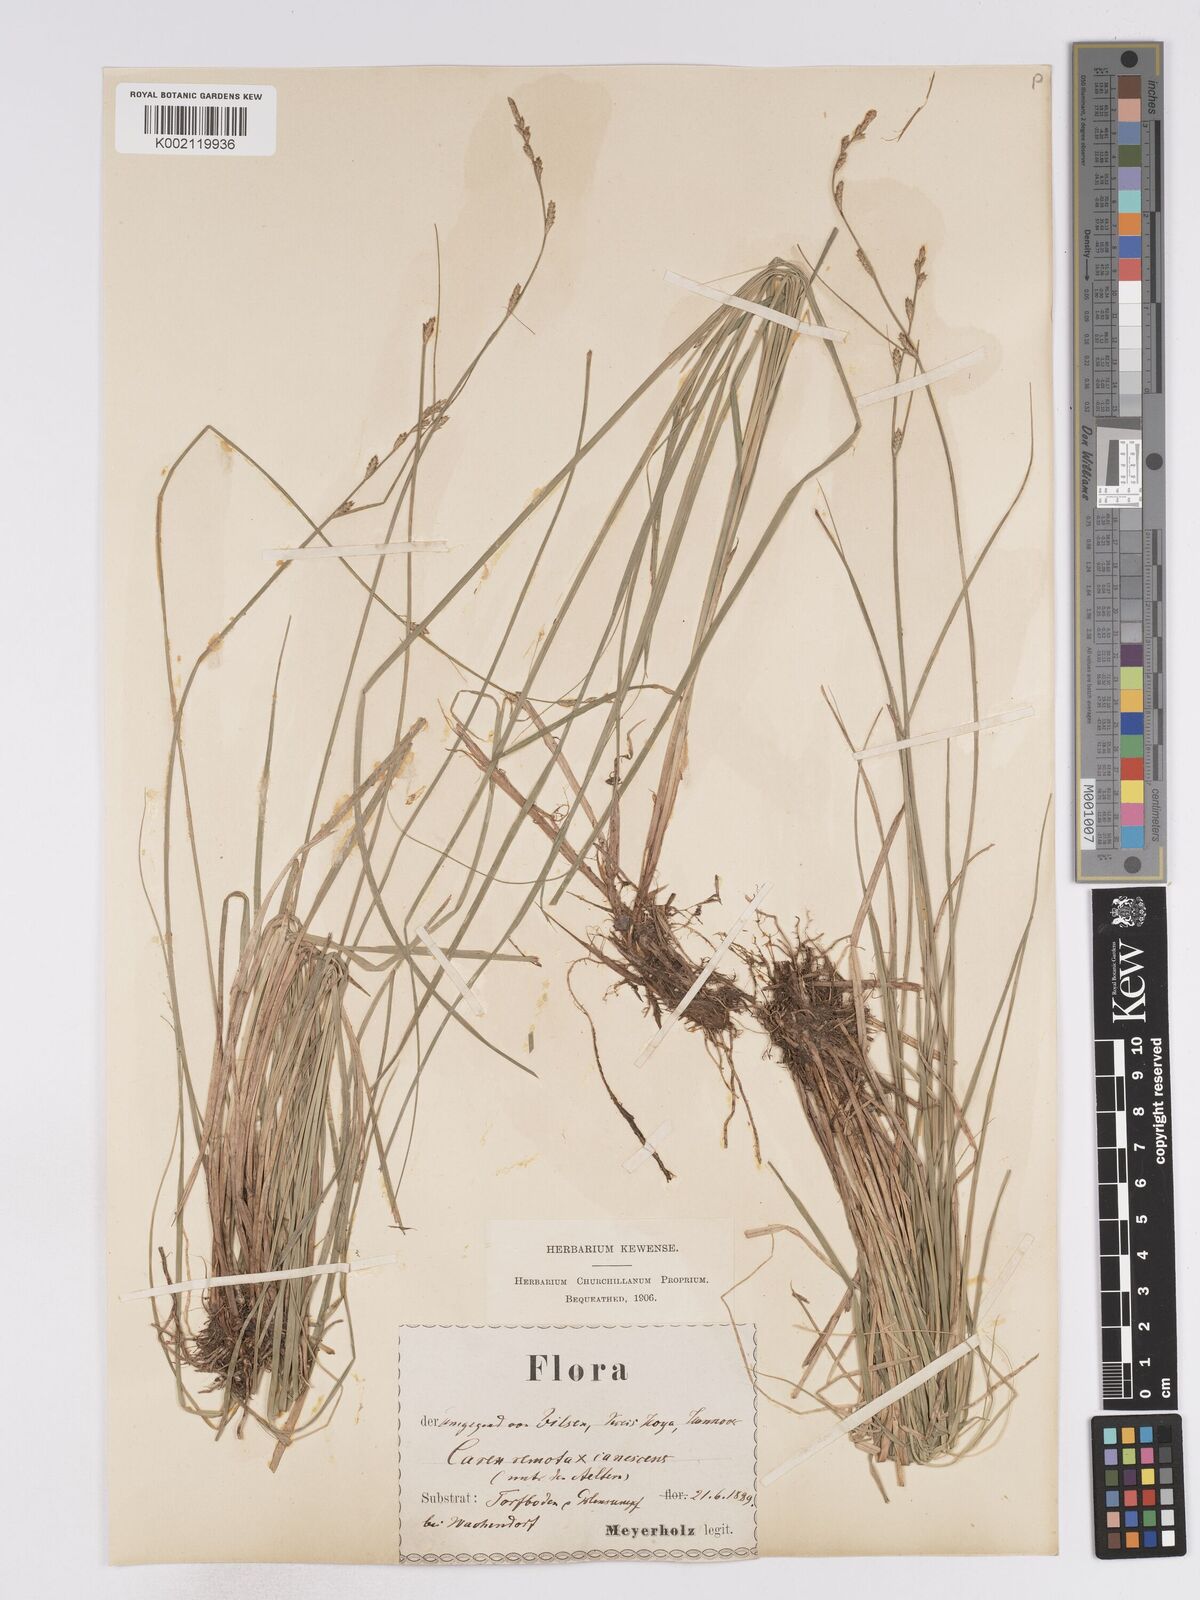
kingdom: Plantae
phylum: Tracheophyta
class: Liliopsida
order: Poales
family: Cyperaceae
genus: Carex
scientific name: Carex curta
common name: White sedge
